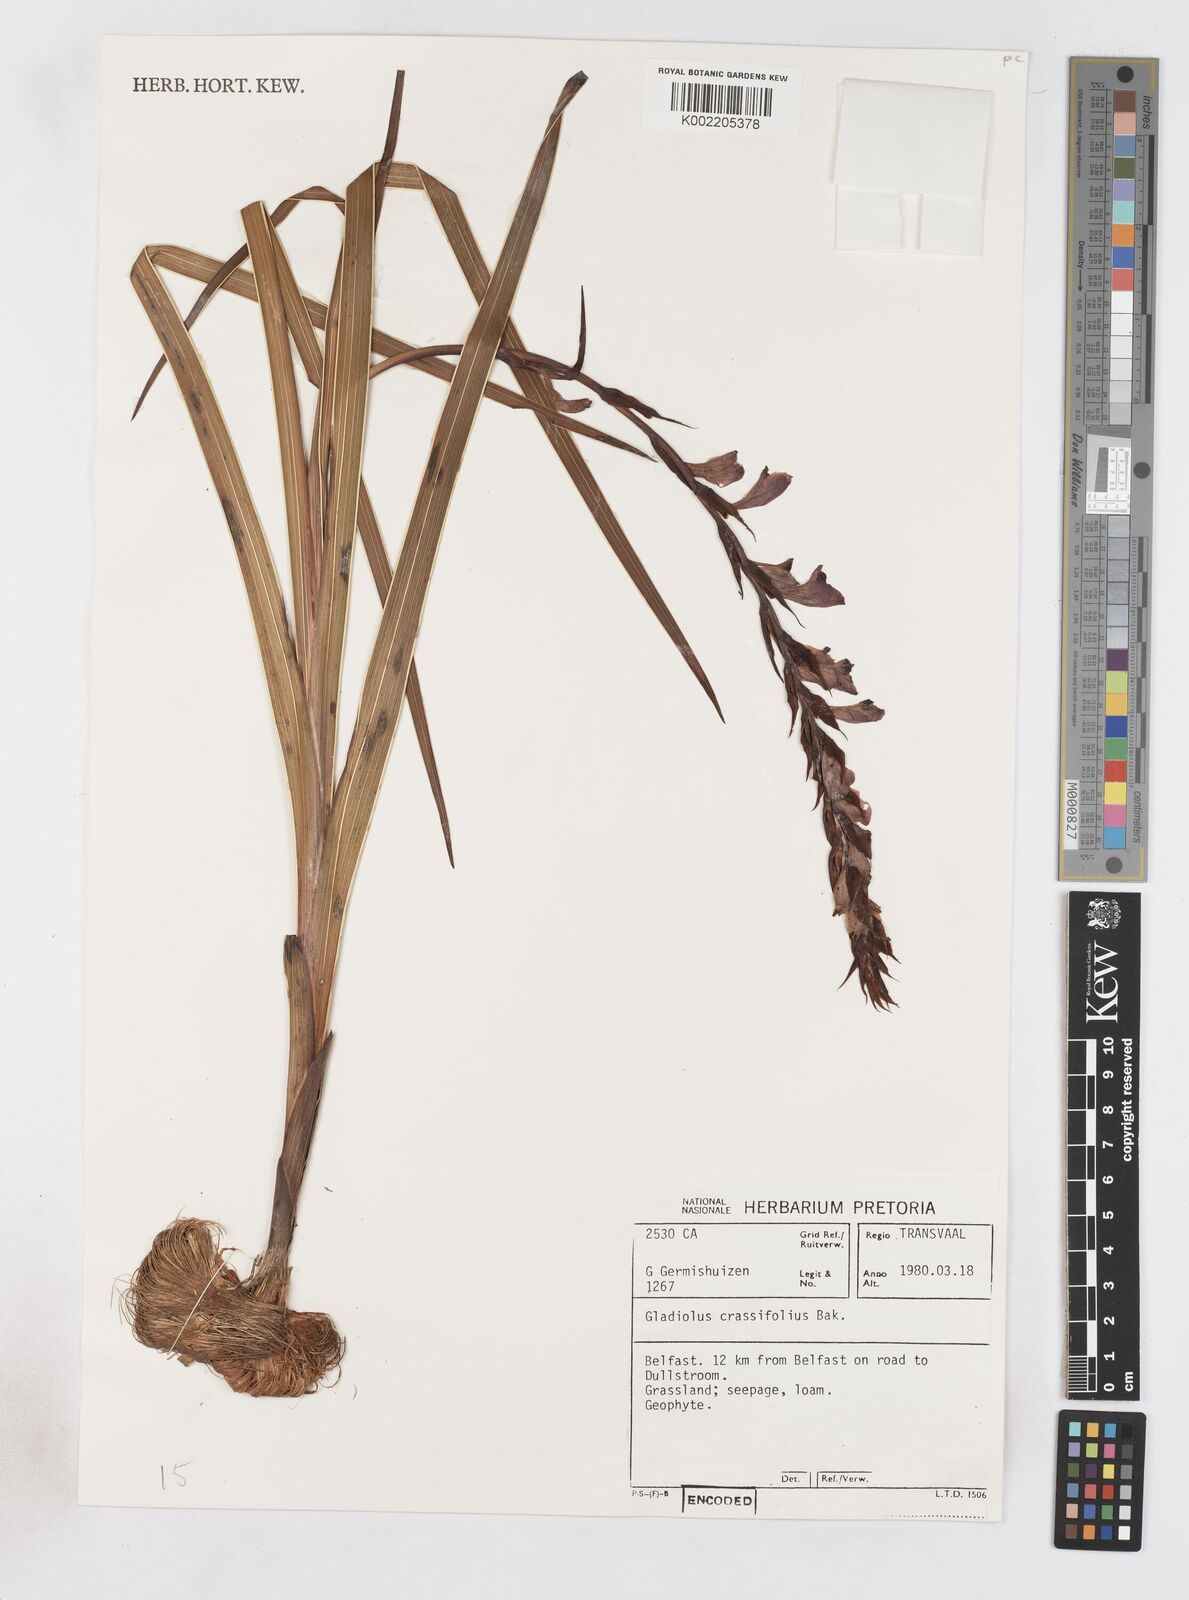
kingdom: Plantae
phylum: Tracheophyta
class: Liliopsida
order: Asparagales
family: Iridaceae
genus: Gladiolus
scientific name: Gladiolus crassifolius
